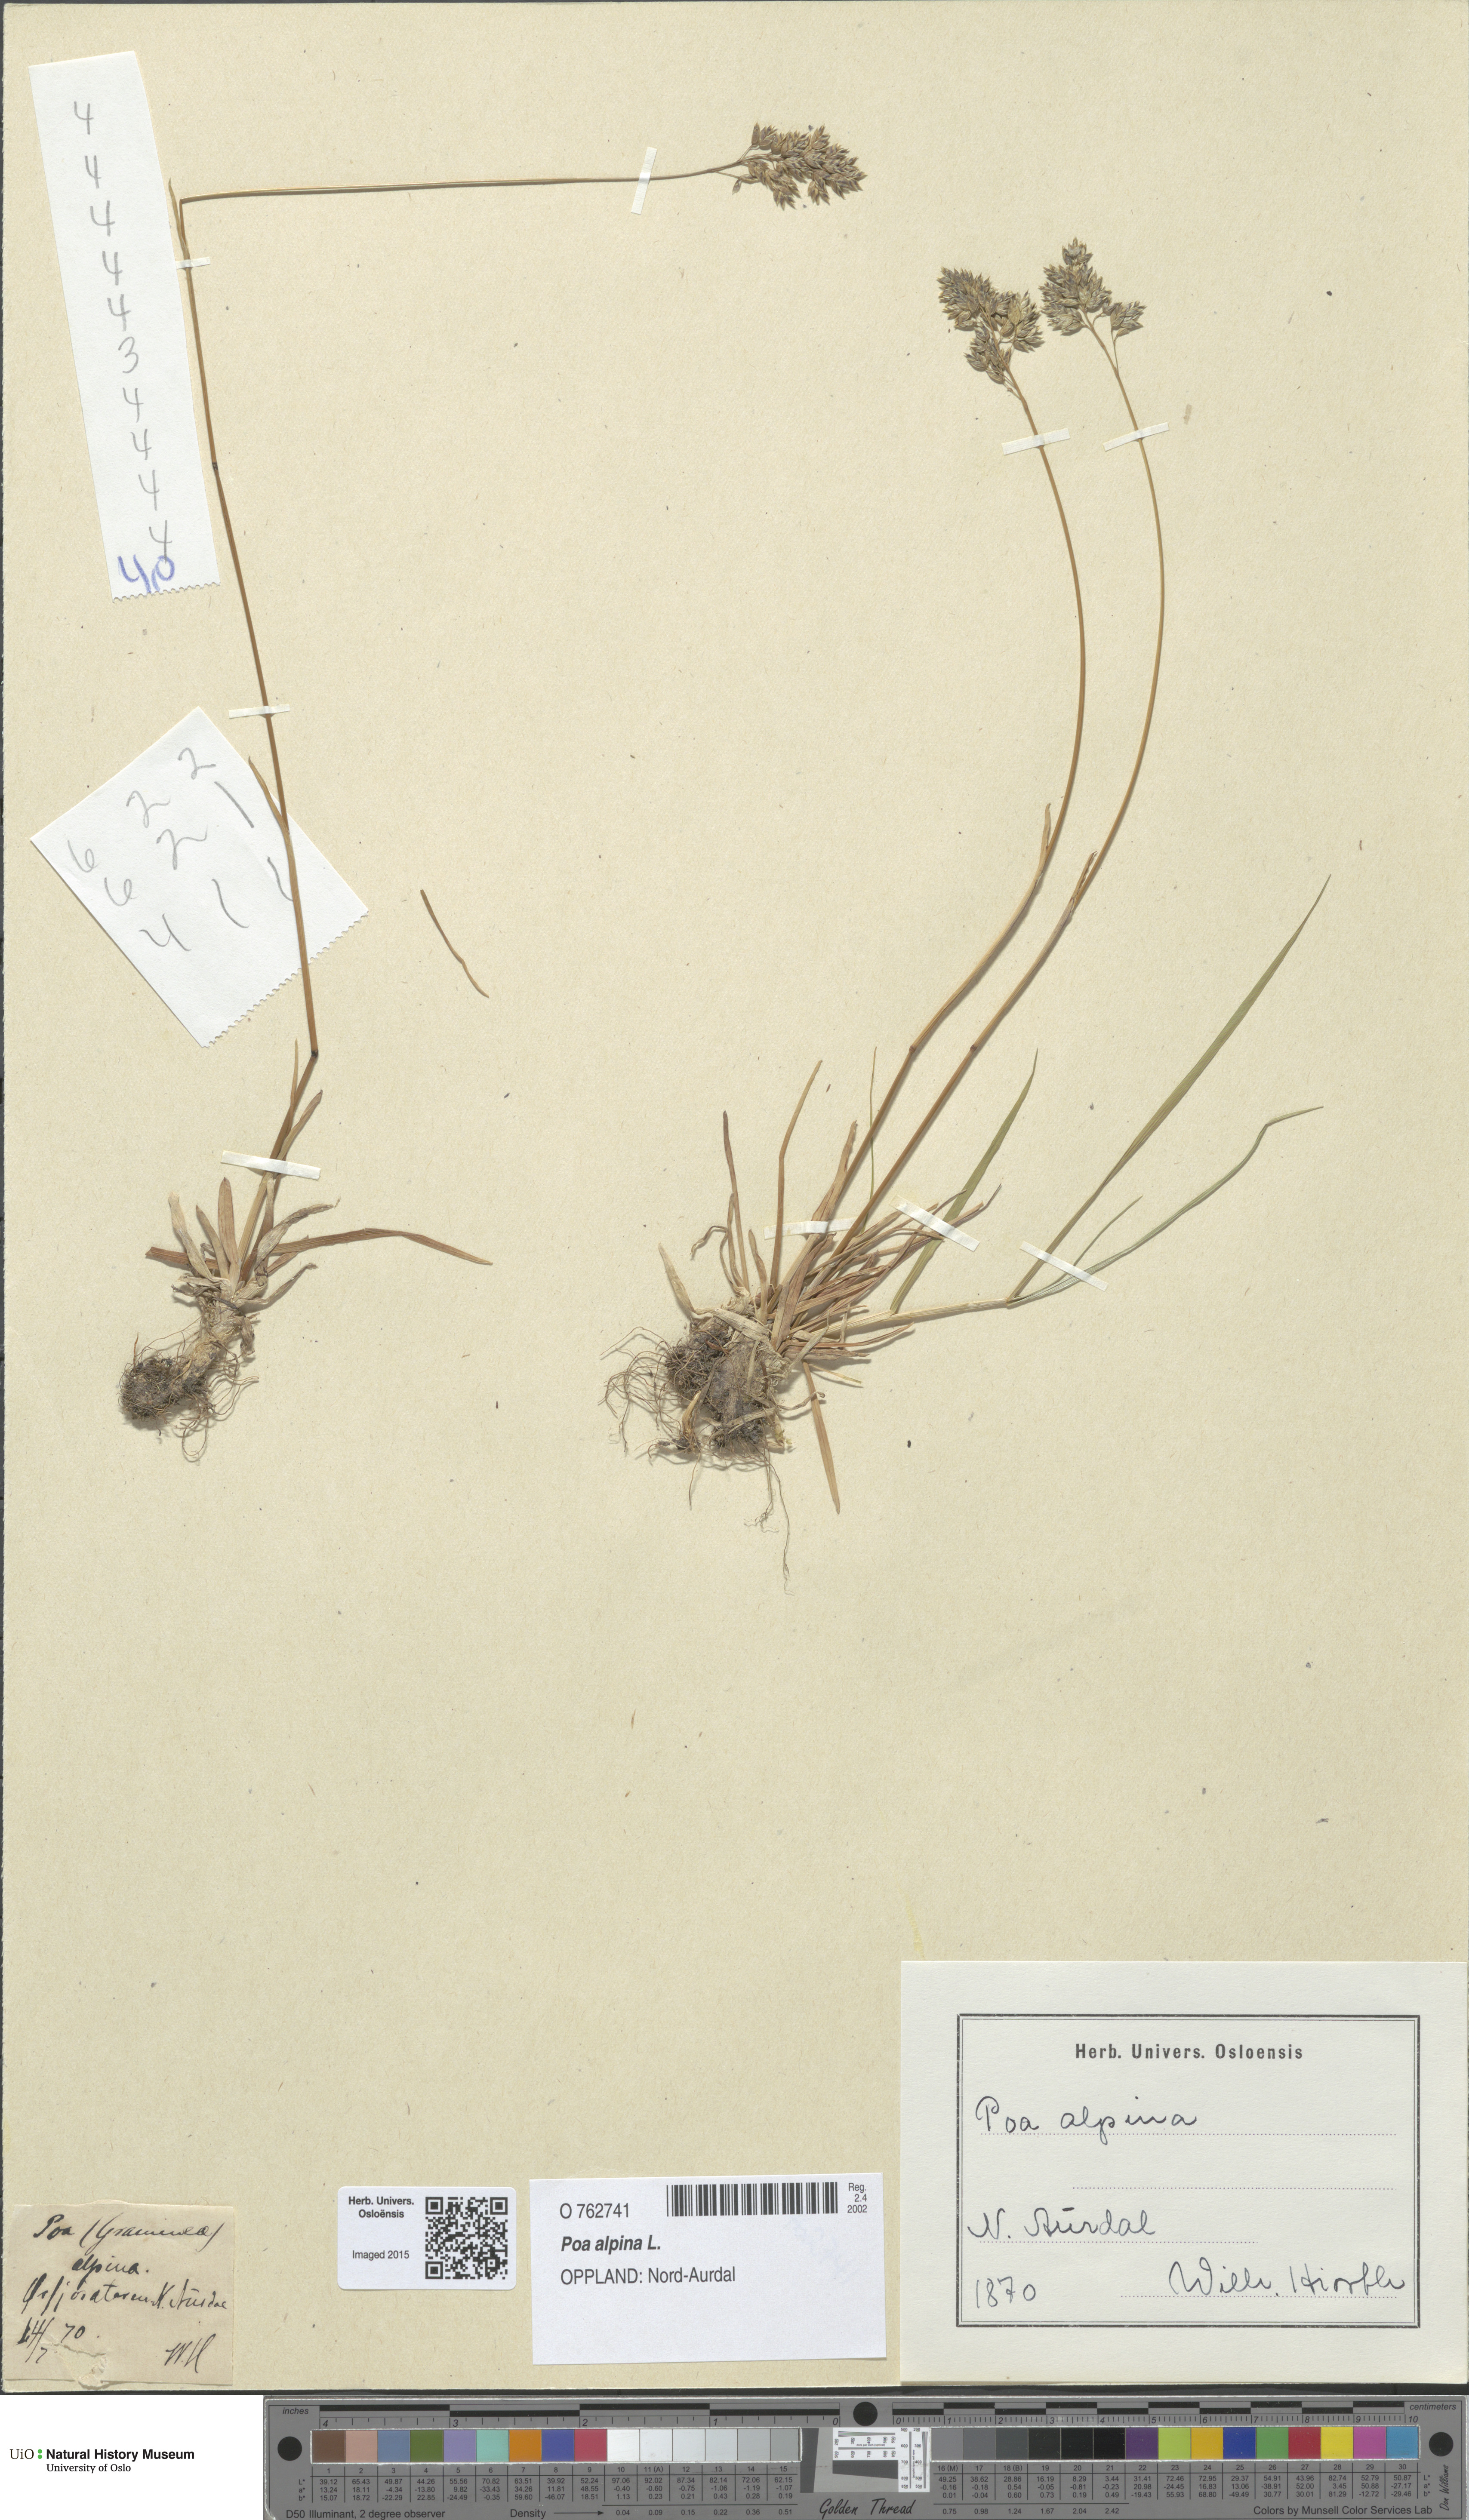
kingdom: Plantae
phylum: Tracheophyta
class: Liliopsida
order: Poales
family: Poaceae
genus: Poa
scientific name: Poa alpina
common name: Alpine bluegrass
